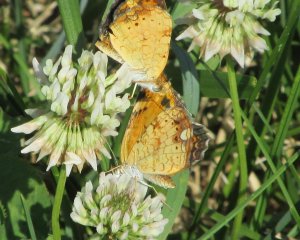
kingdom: Animalia
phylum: Arthropoda
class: Insecta
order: Lepidoptera
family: Nymphalidae
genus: Phyciodes
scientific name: Phyciodes tharos
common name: Pearl Crescent
